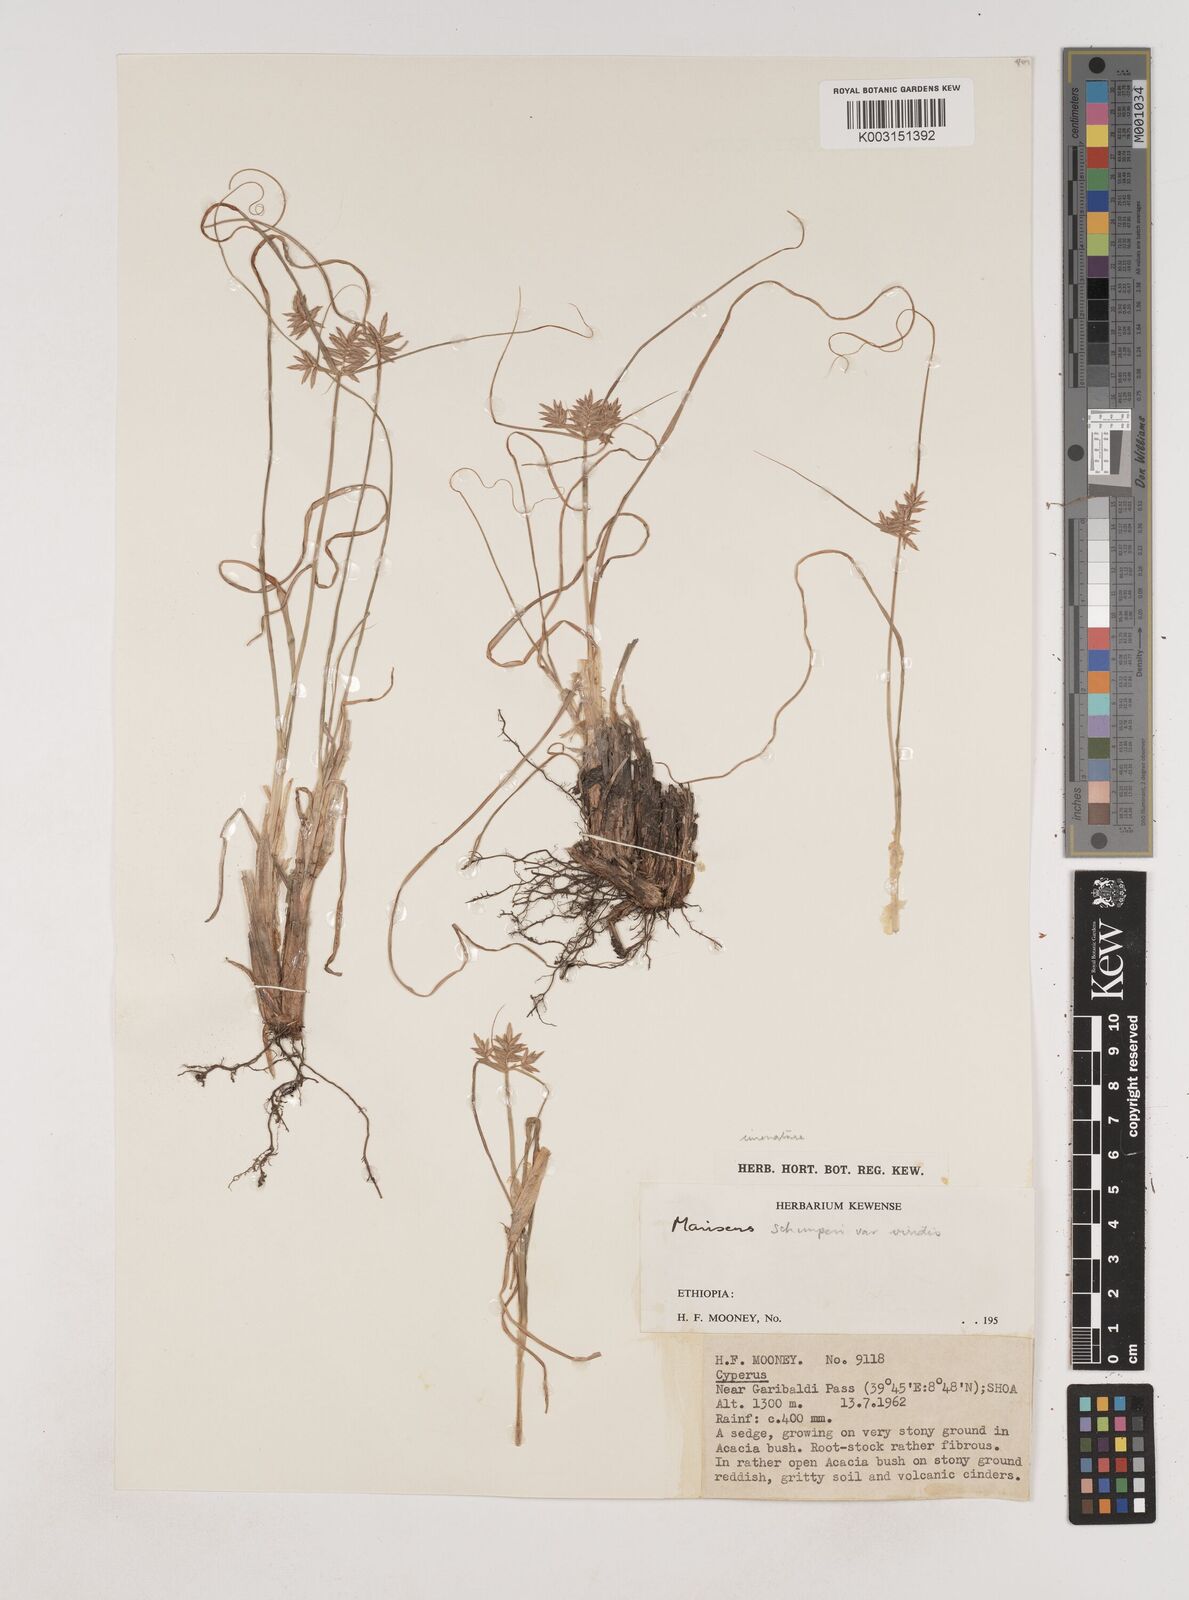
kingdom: Plantae
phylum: Tracheophyta
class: Liliopsida
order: Poales
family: Cyperaceae
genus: Cyperus
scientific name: Cyperus amauropus
